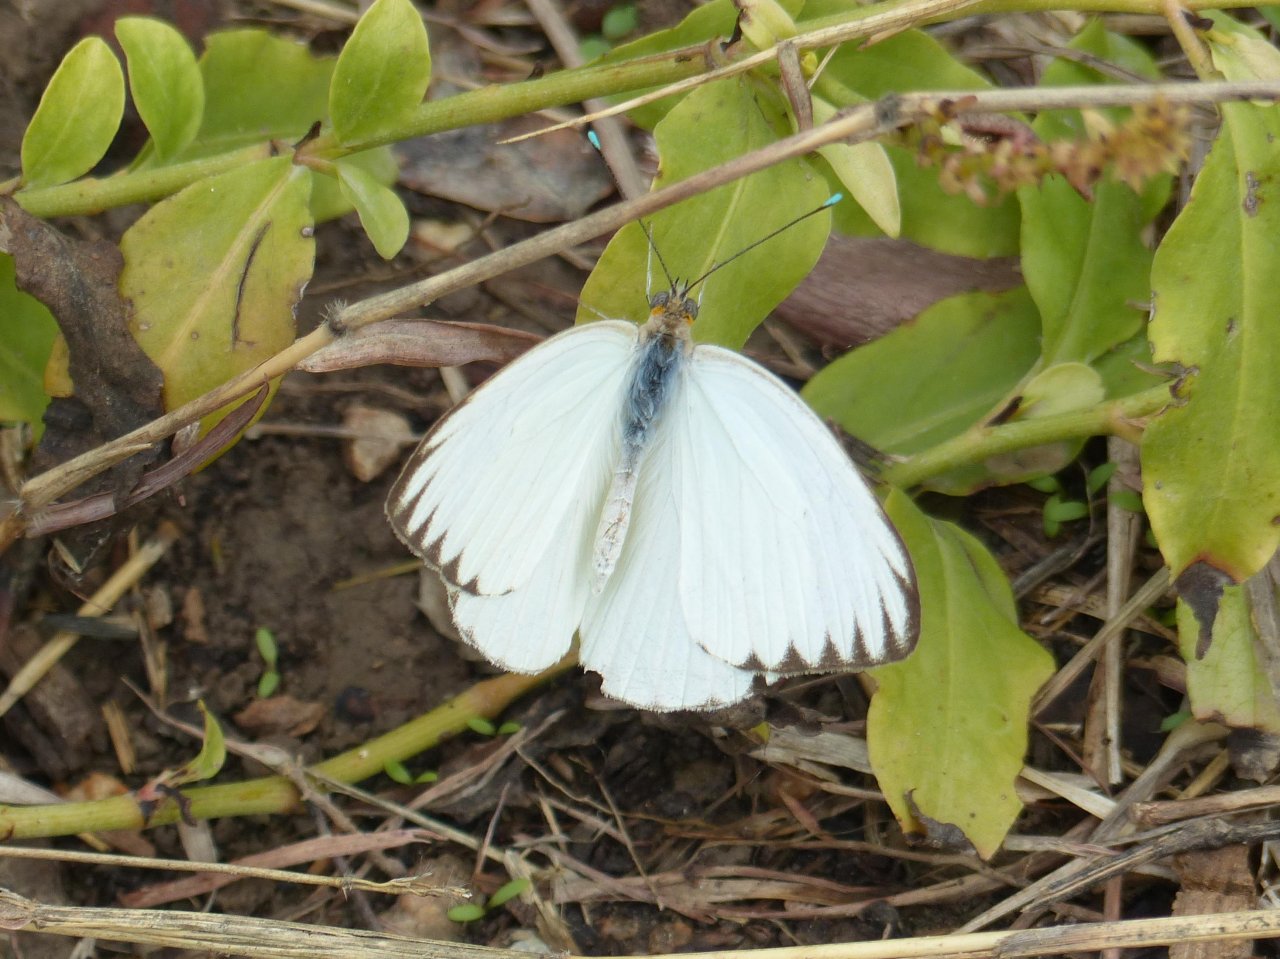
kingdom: Animalia
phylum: Arthropoda
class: Insecta
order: Lepidoptera
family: Pieridae
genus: Ascia
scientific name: Ascia monuste
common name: Great Southern White
